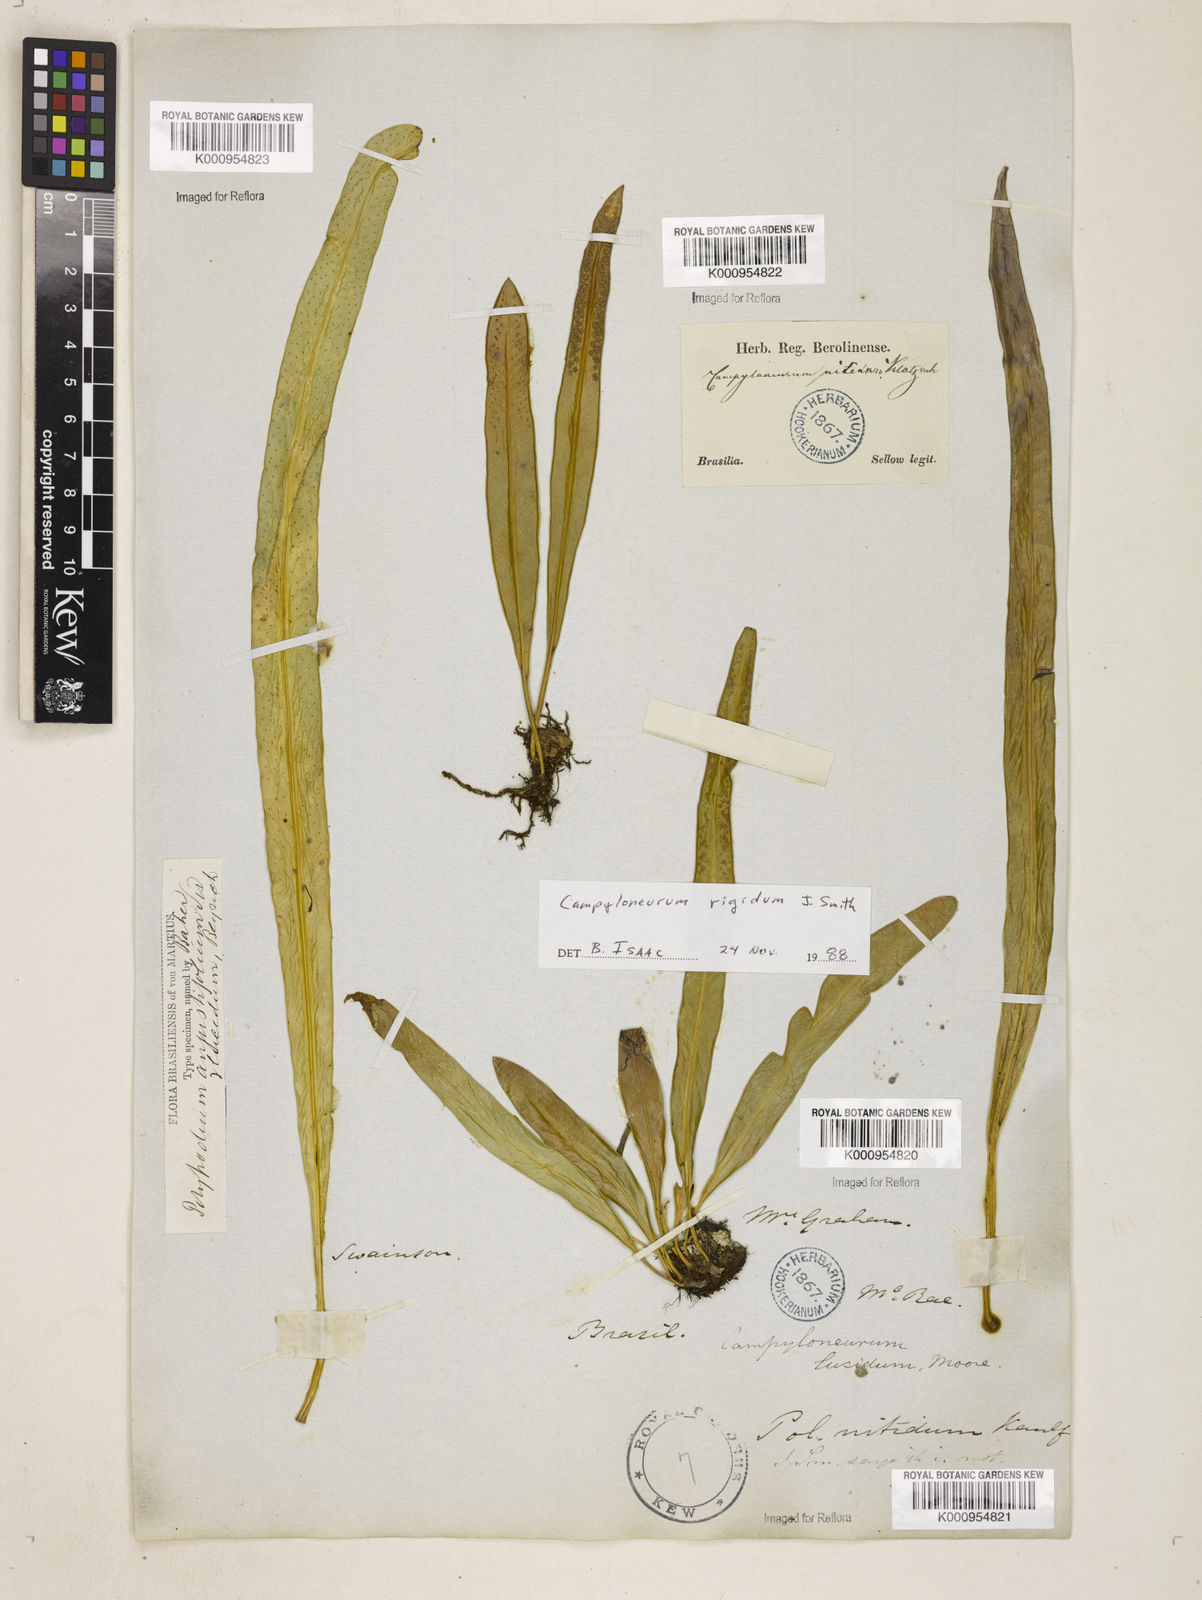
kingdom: Plantae
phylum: Tracheophyta
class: Polypodiopsida
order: Polypodiales
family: Polypodiaceae
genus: Campyloneurum
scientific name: Campyloneurum rigidum
